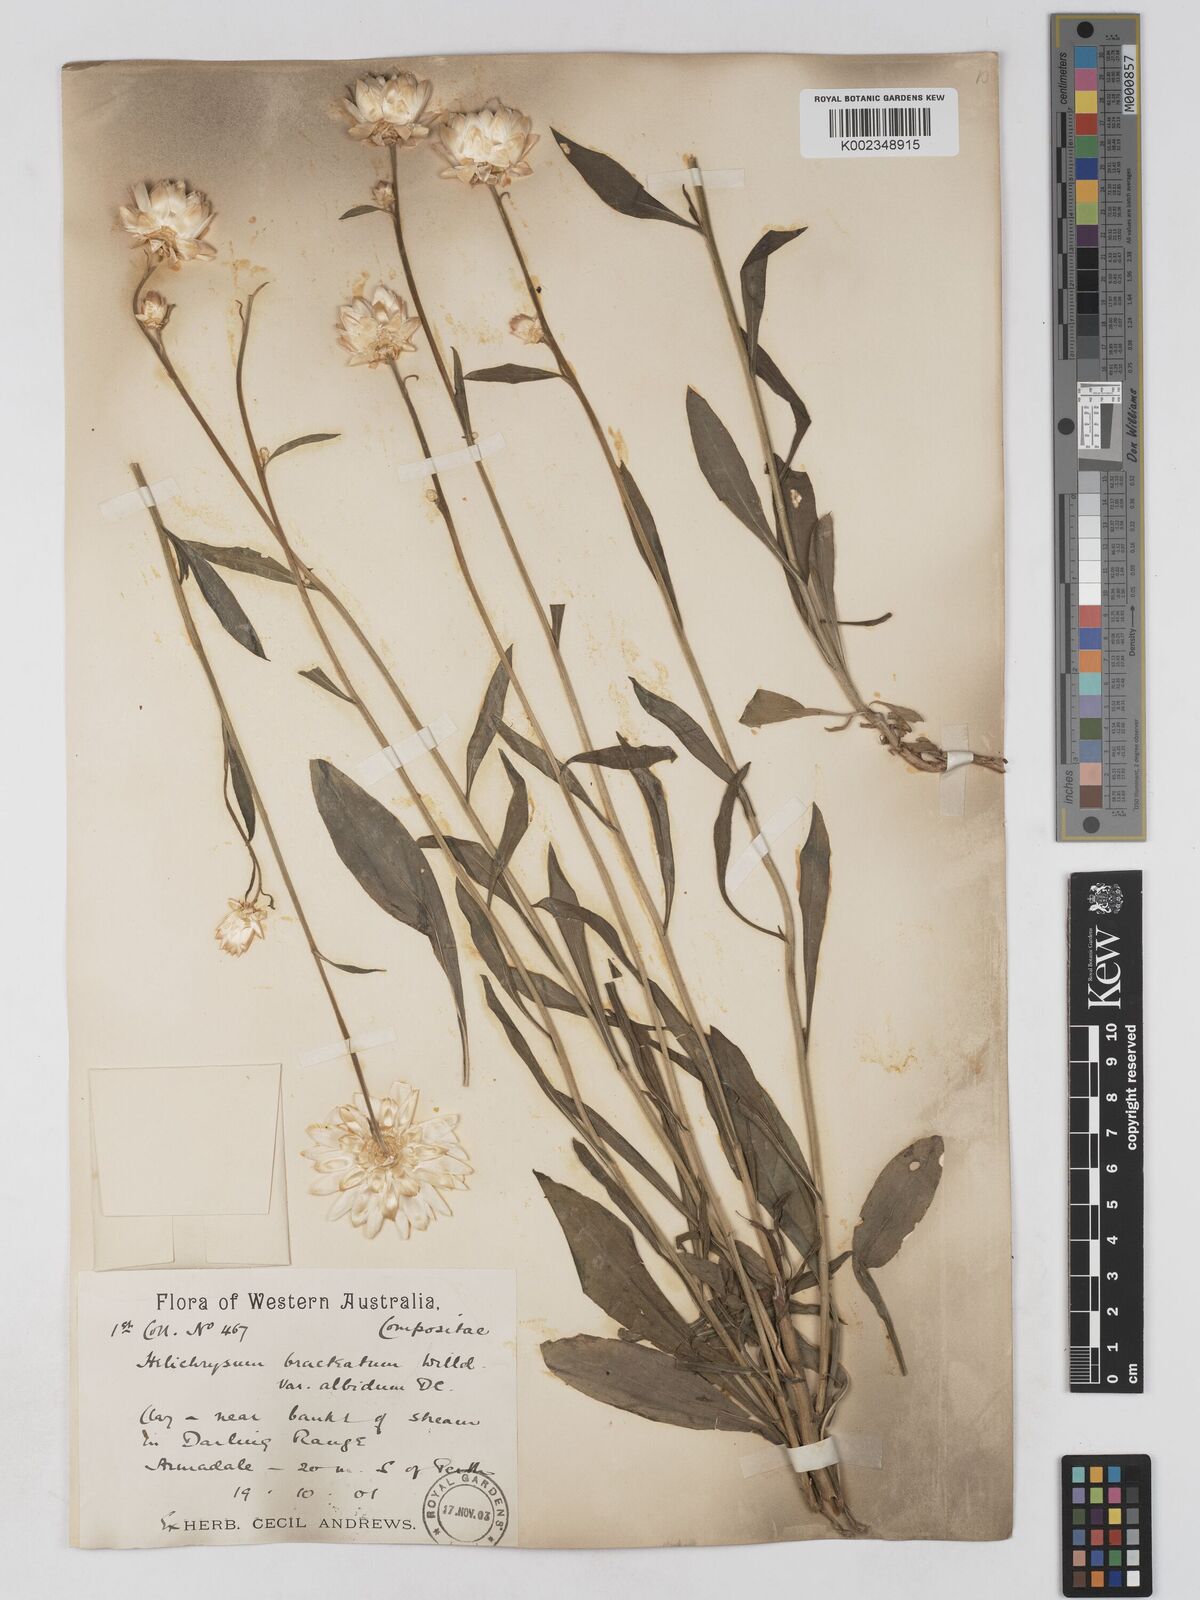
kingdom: Plantae
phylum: Tracheophyta
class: Magnoliopsida
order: Asterales
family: Asteraceae
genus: Xerochrysum
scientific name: Xerochrysum bracteatum
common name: Bracted strawflower
